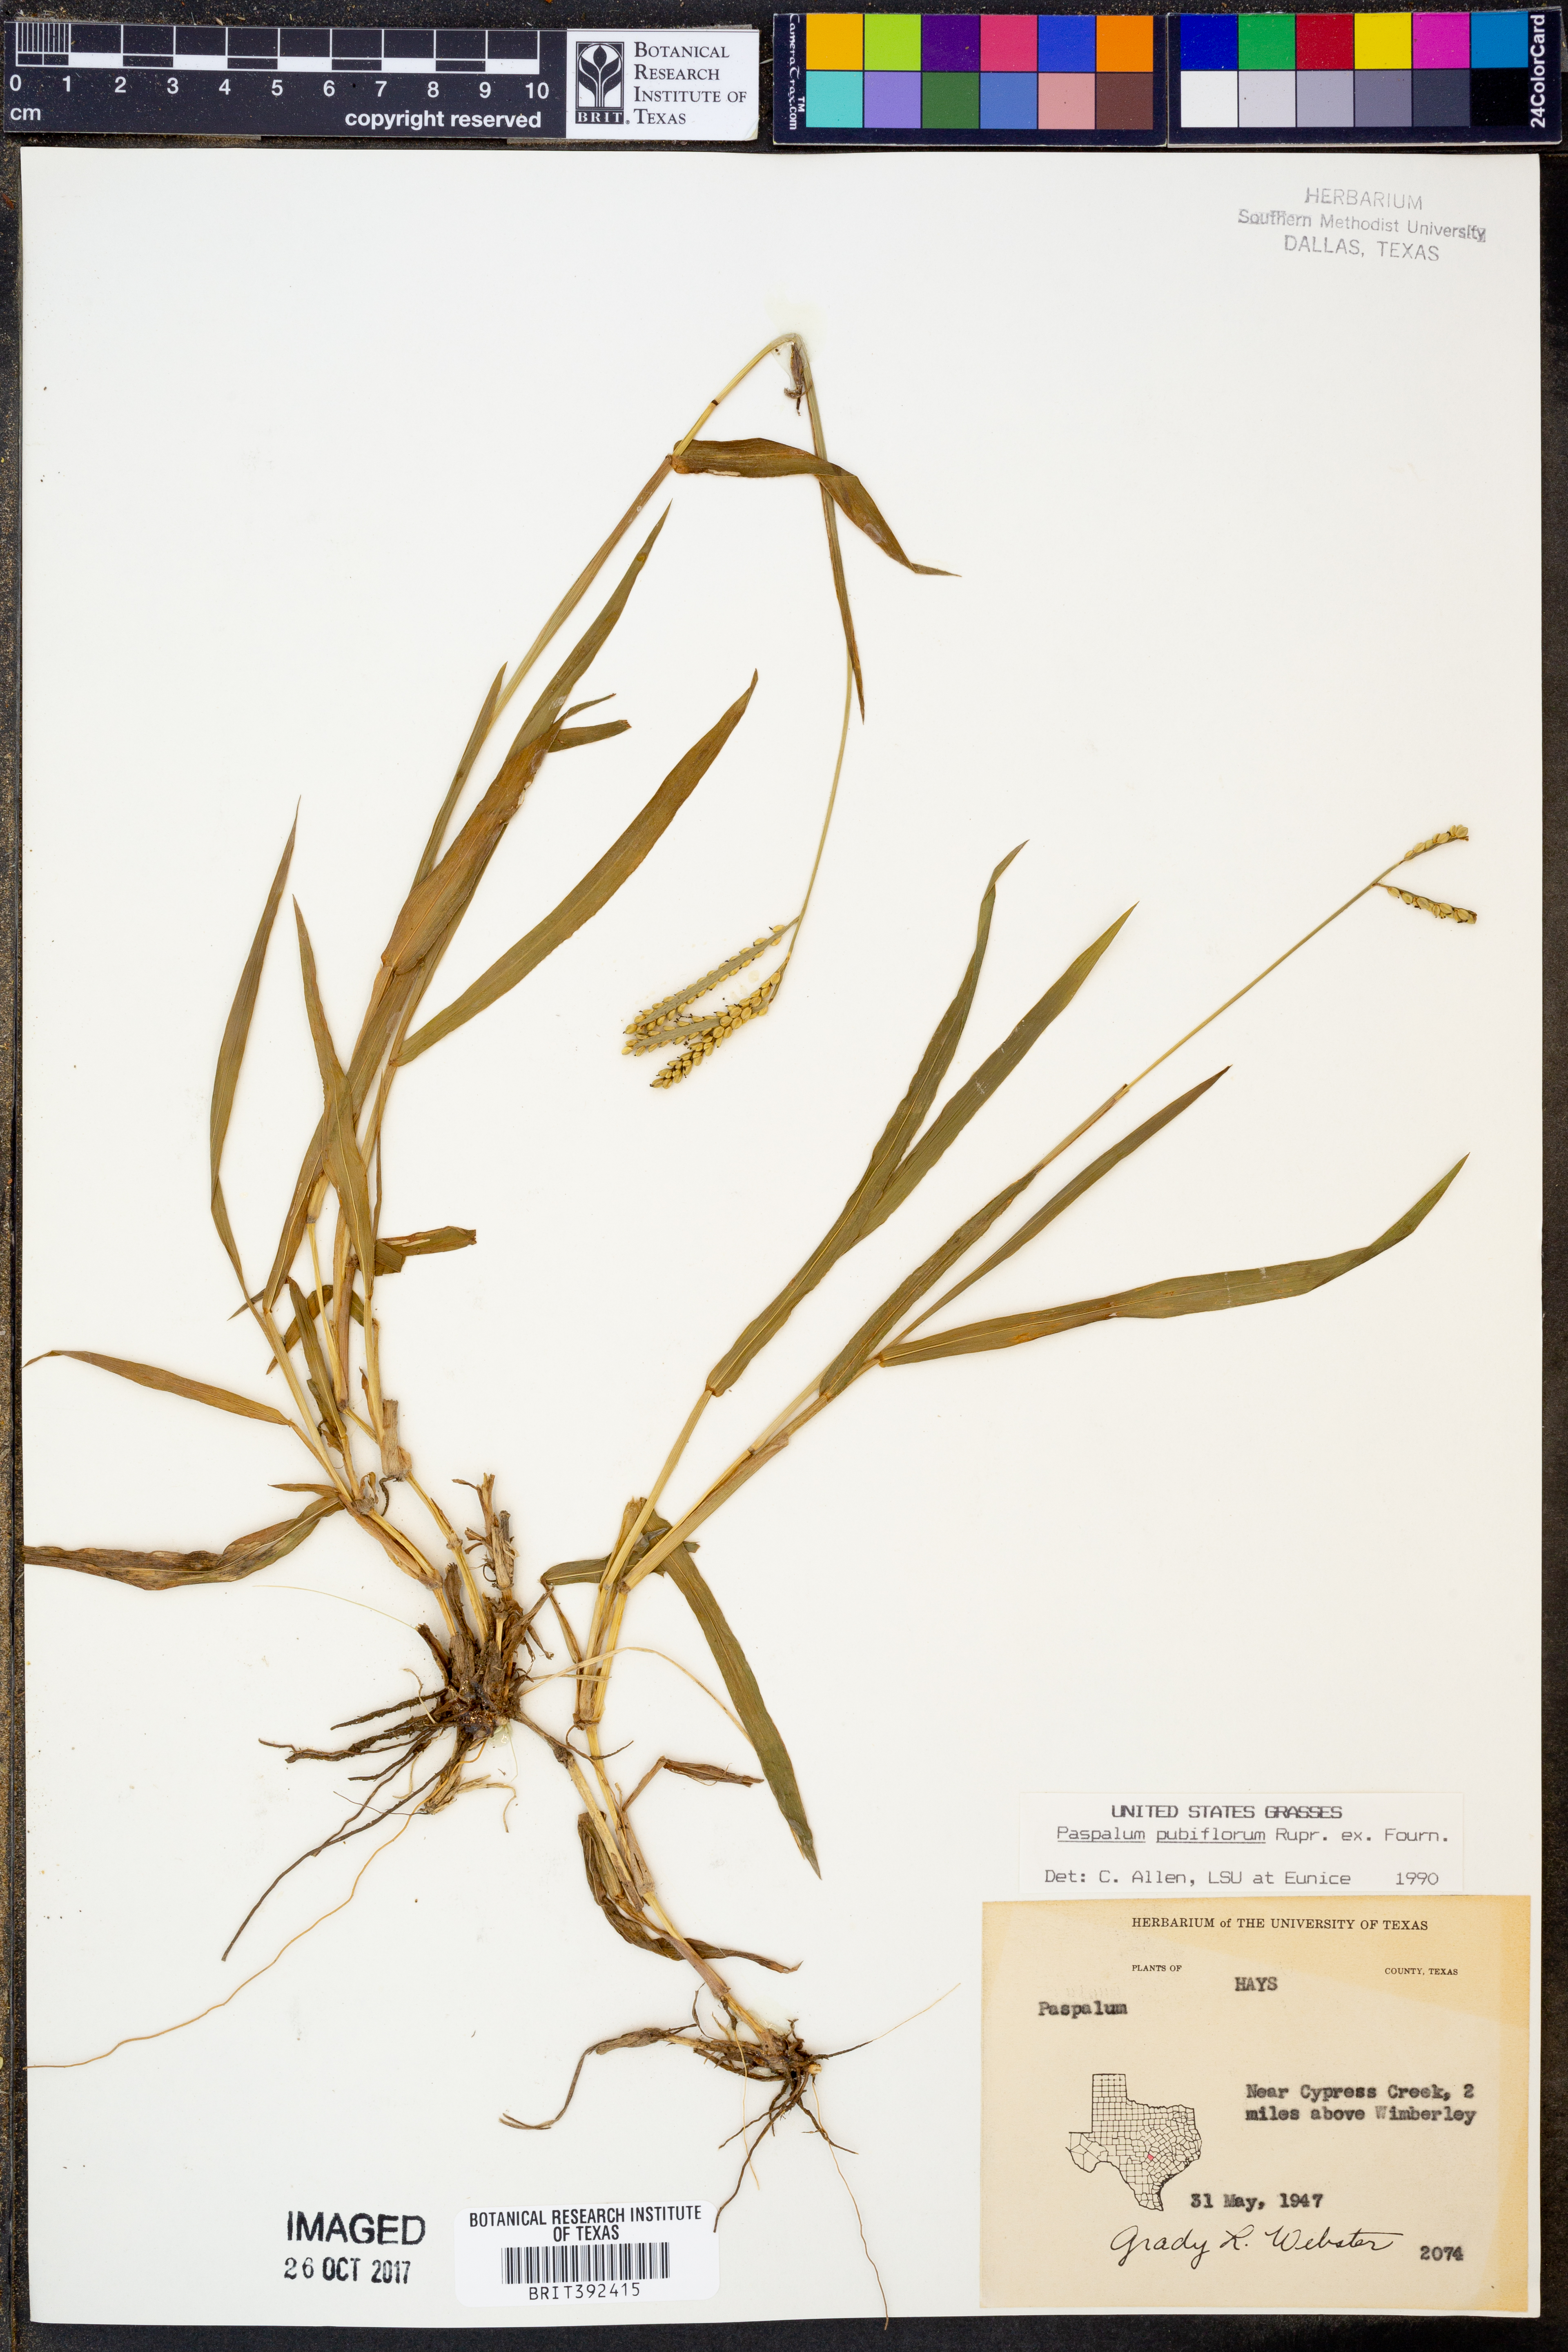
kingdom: Plantae
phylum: Tracheophyta
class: Liliopsida
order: Poales
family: Poaceae
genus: Paspalum
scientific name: Paspalum pubiflorum
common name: Hairy-seed paspalum
